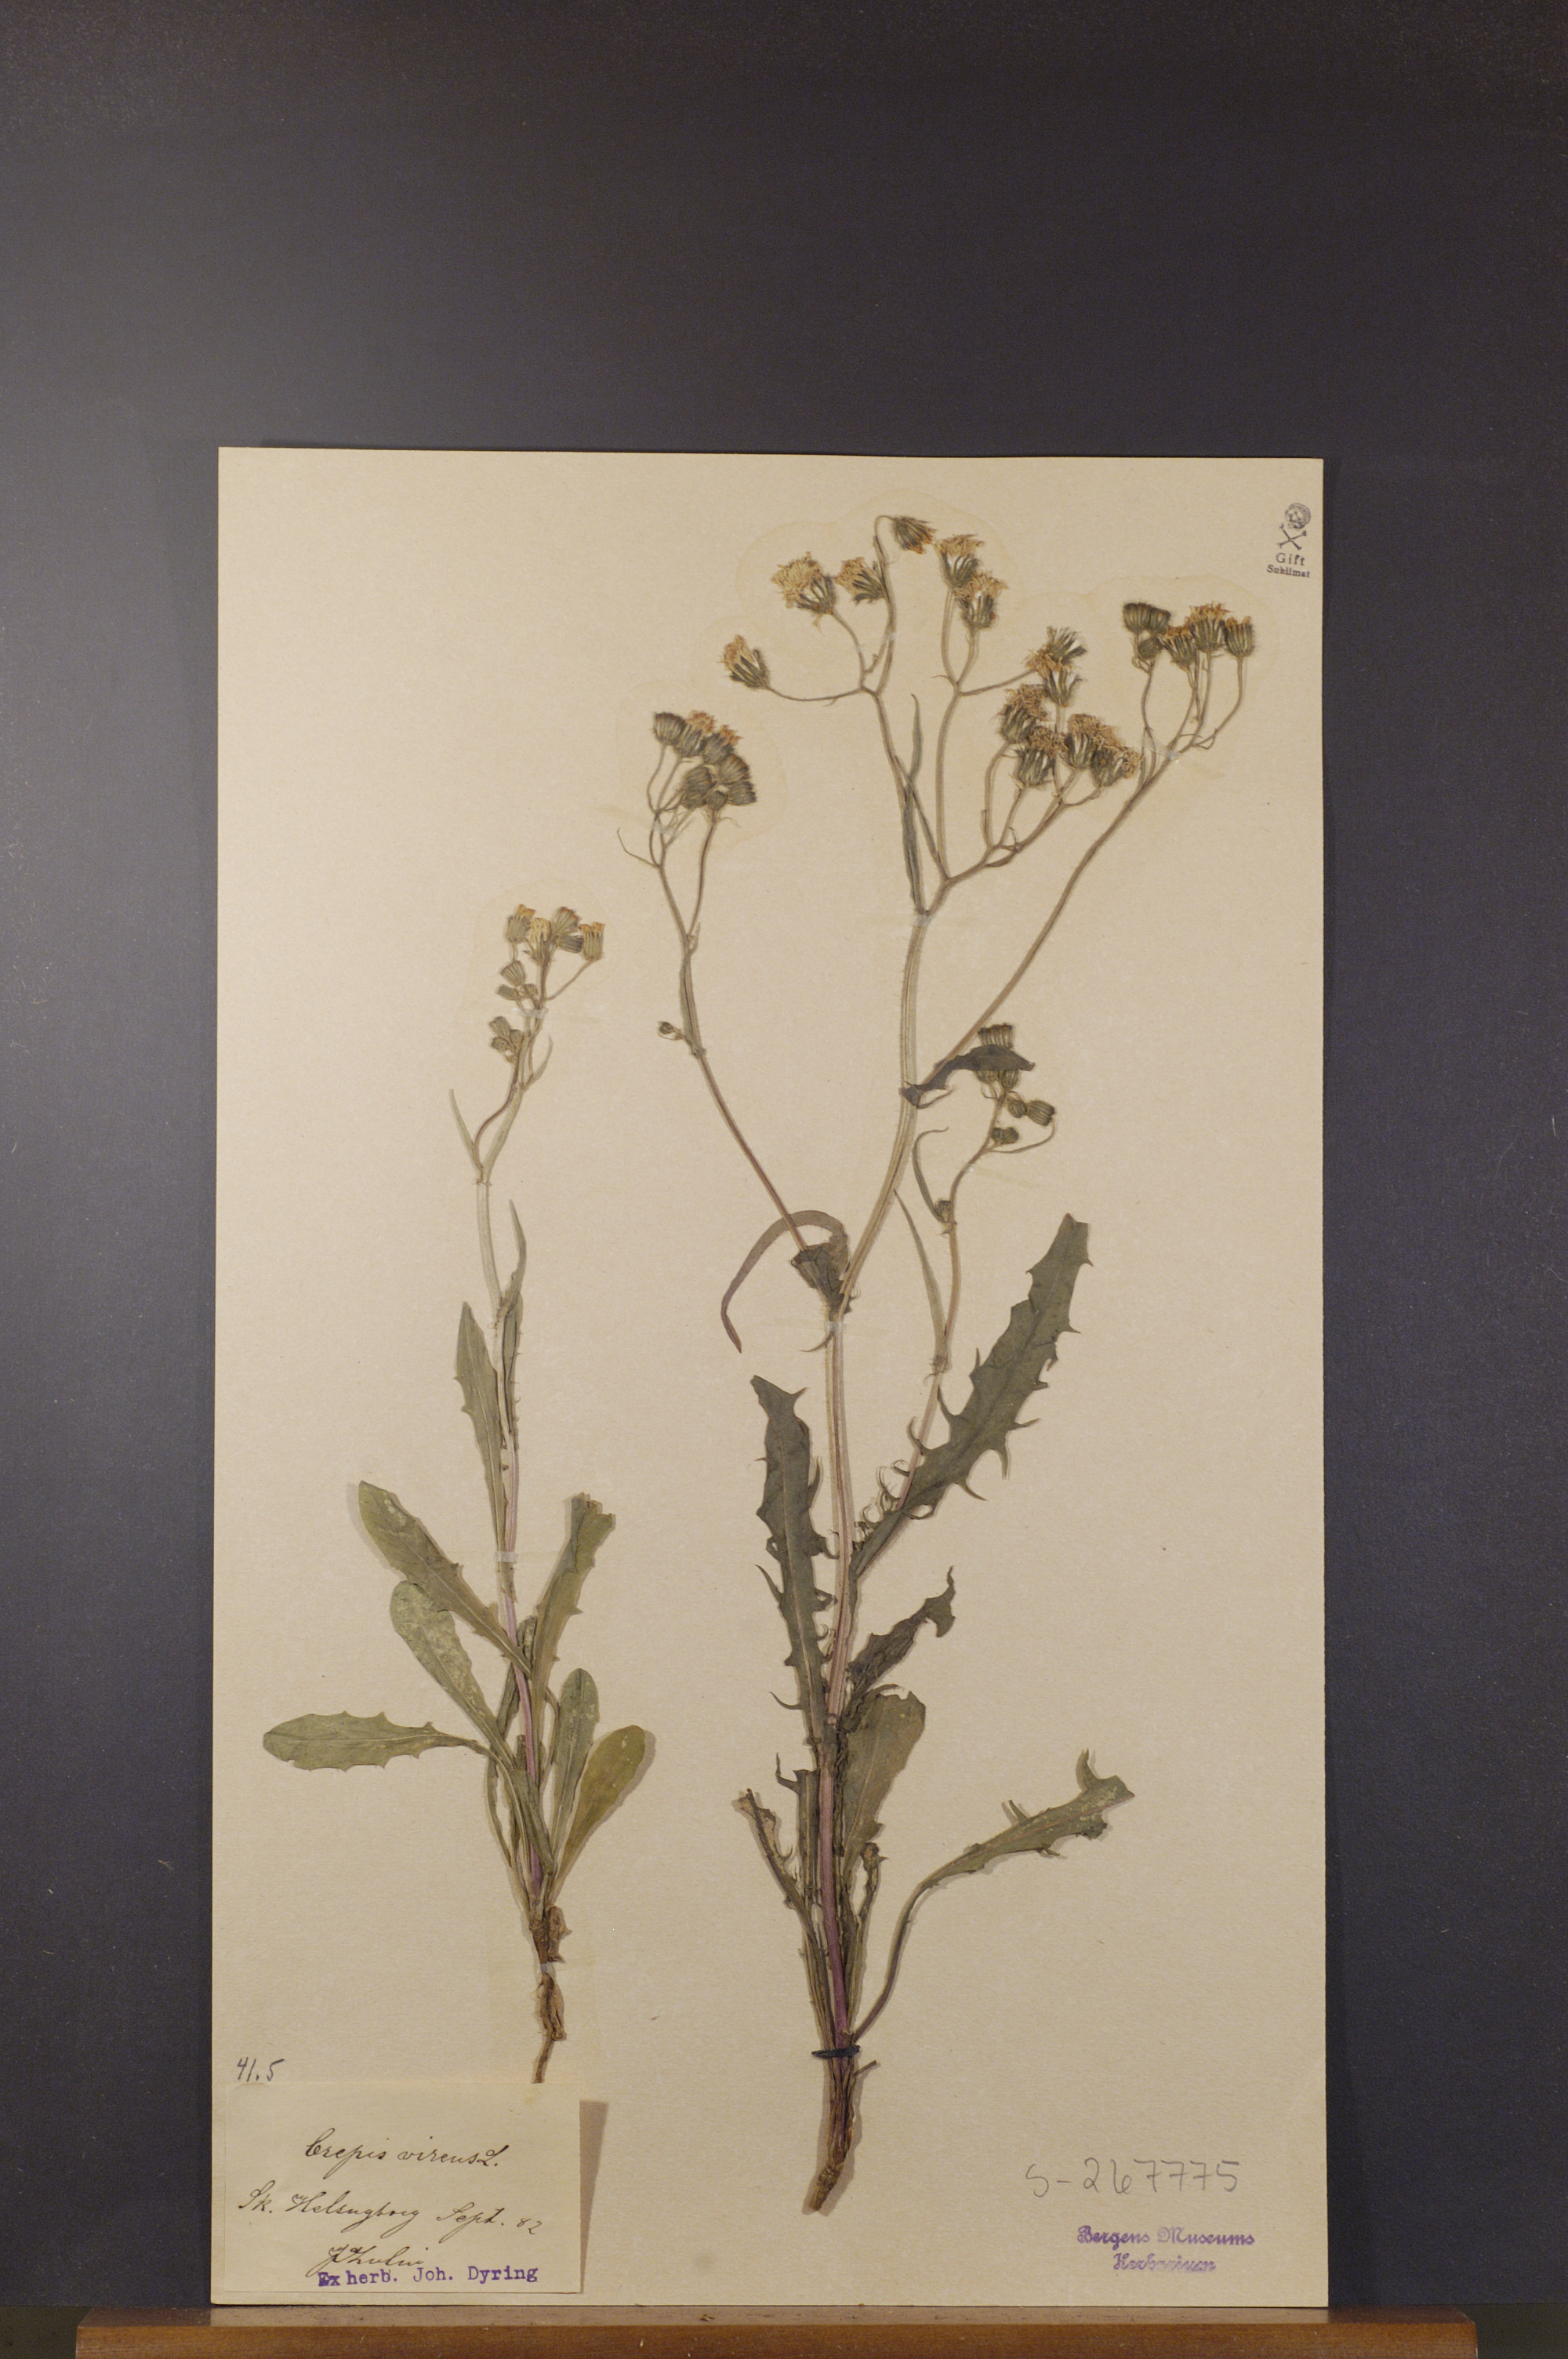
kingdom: Plantae
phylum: Tracheophyta
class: Magnoliopsida
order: Asterales
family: Asteraceae
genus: Crepis
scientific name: Crepis capillaris
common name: Smooth hawksbeard
